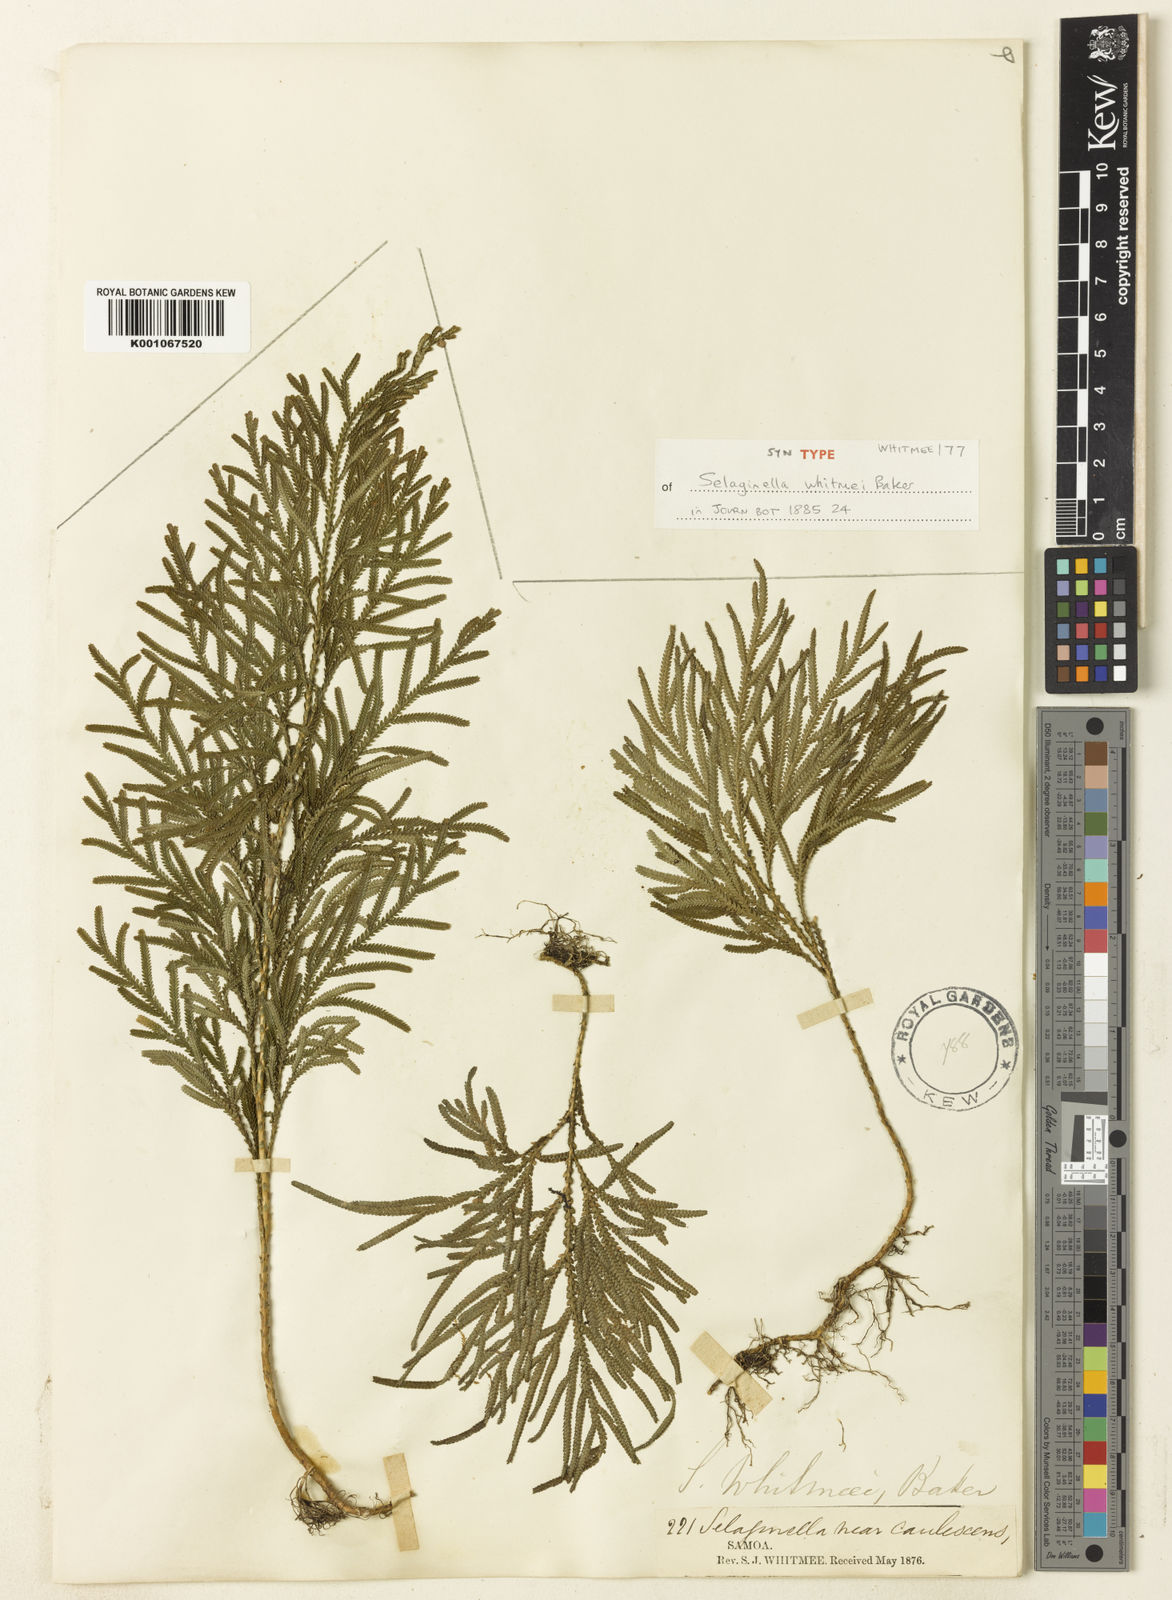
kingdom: Plantae
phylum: Tracheophyta
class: Lycopodiopsida
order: Selaginellales
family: Selaginellaceae
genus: Selaginella
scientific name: Selaginella whitmeei
